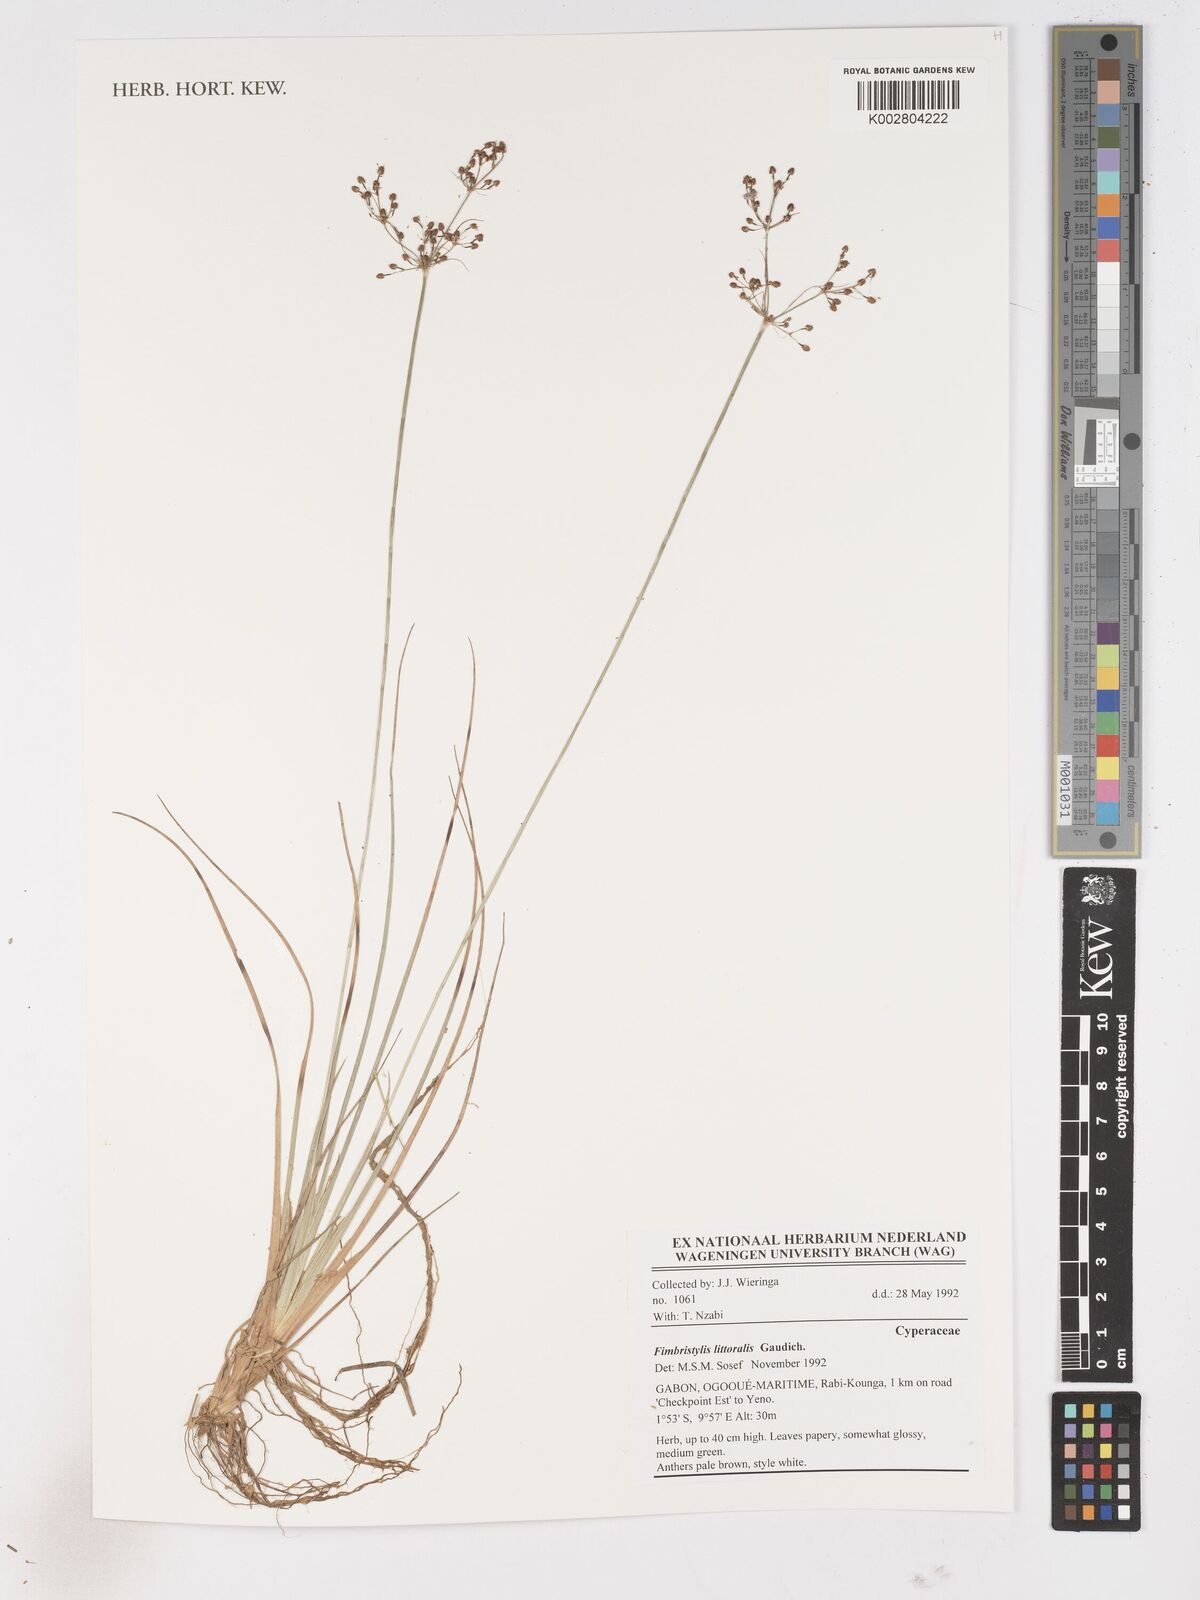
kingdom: Plantae
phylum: Tracheophyta
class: Liliopsida
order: Poales
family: Cyperaceae
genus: Fimbristylis
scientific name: Fimbristylis littoralis
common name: Fimbry
